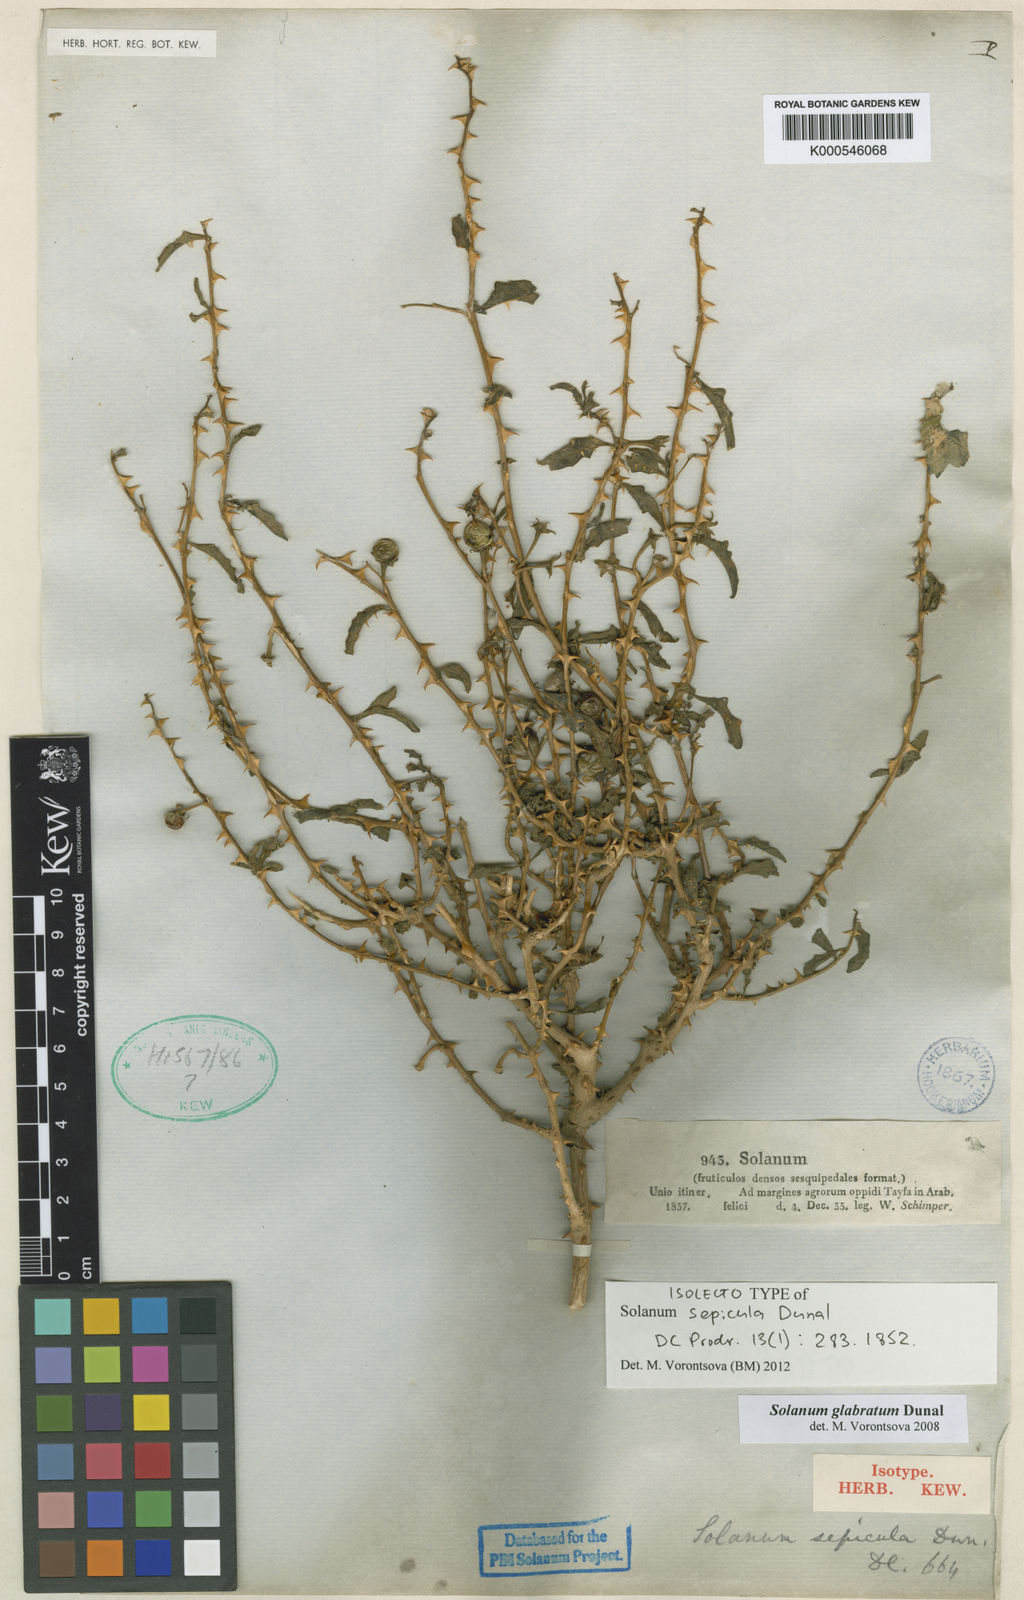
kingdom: Plantae
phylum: Tracheophyta
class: Magnoliopsida
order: Solanales
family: Solanaceae
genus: Solanum
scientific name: Solanum glabratum
